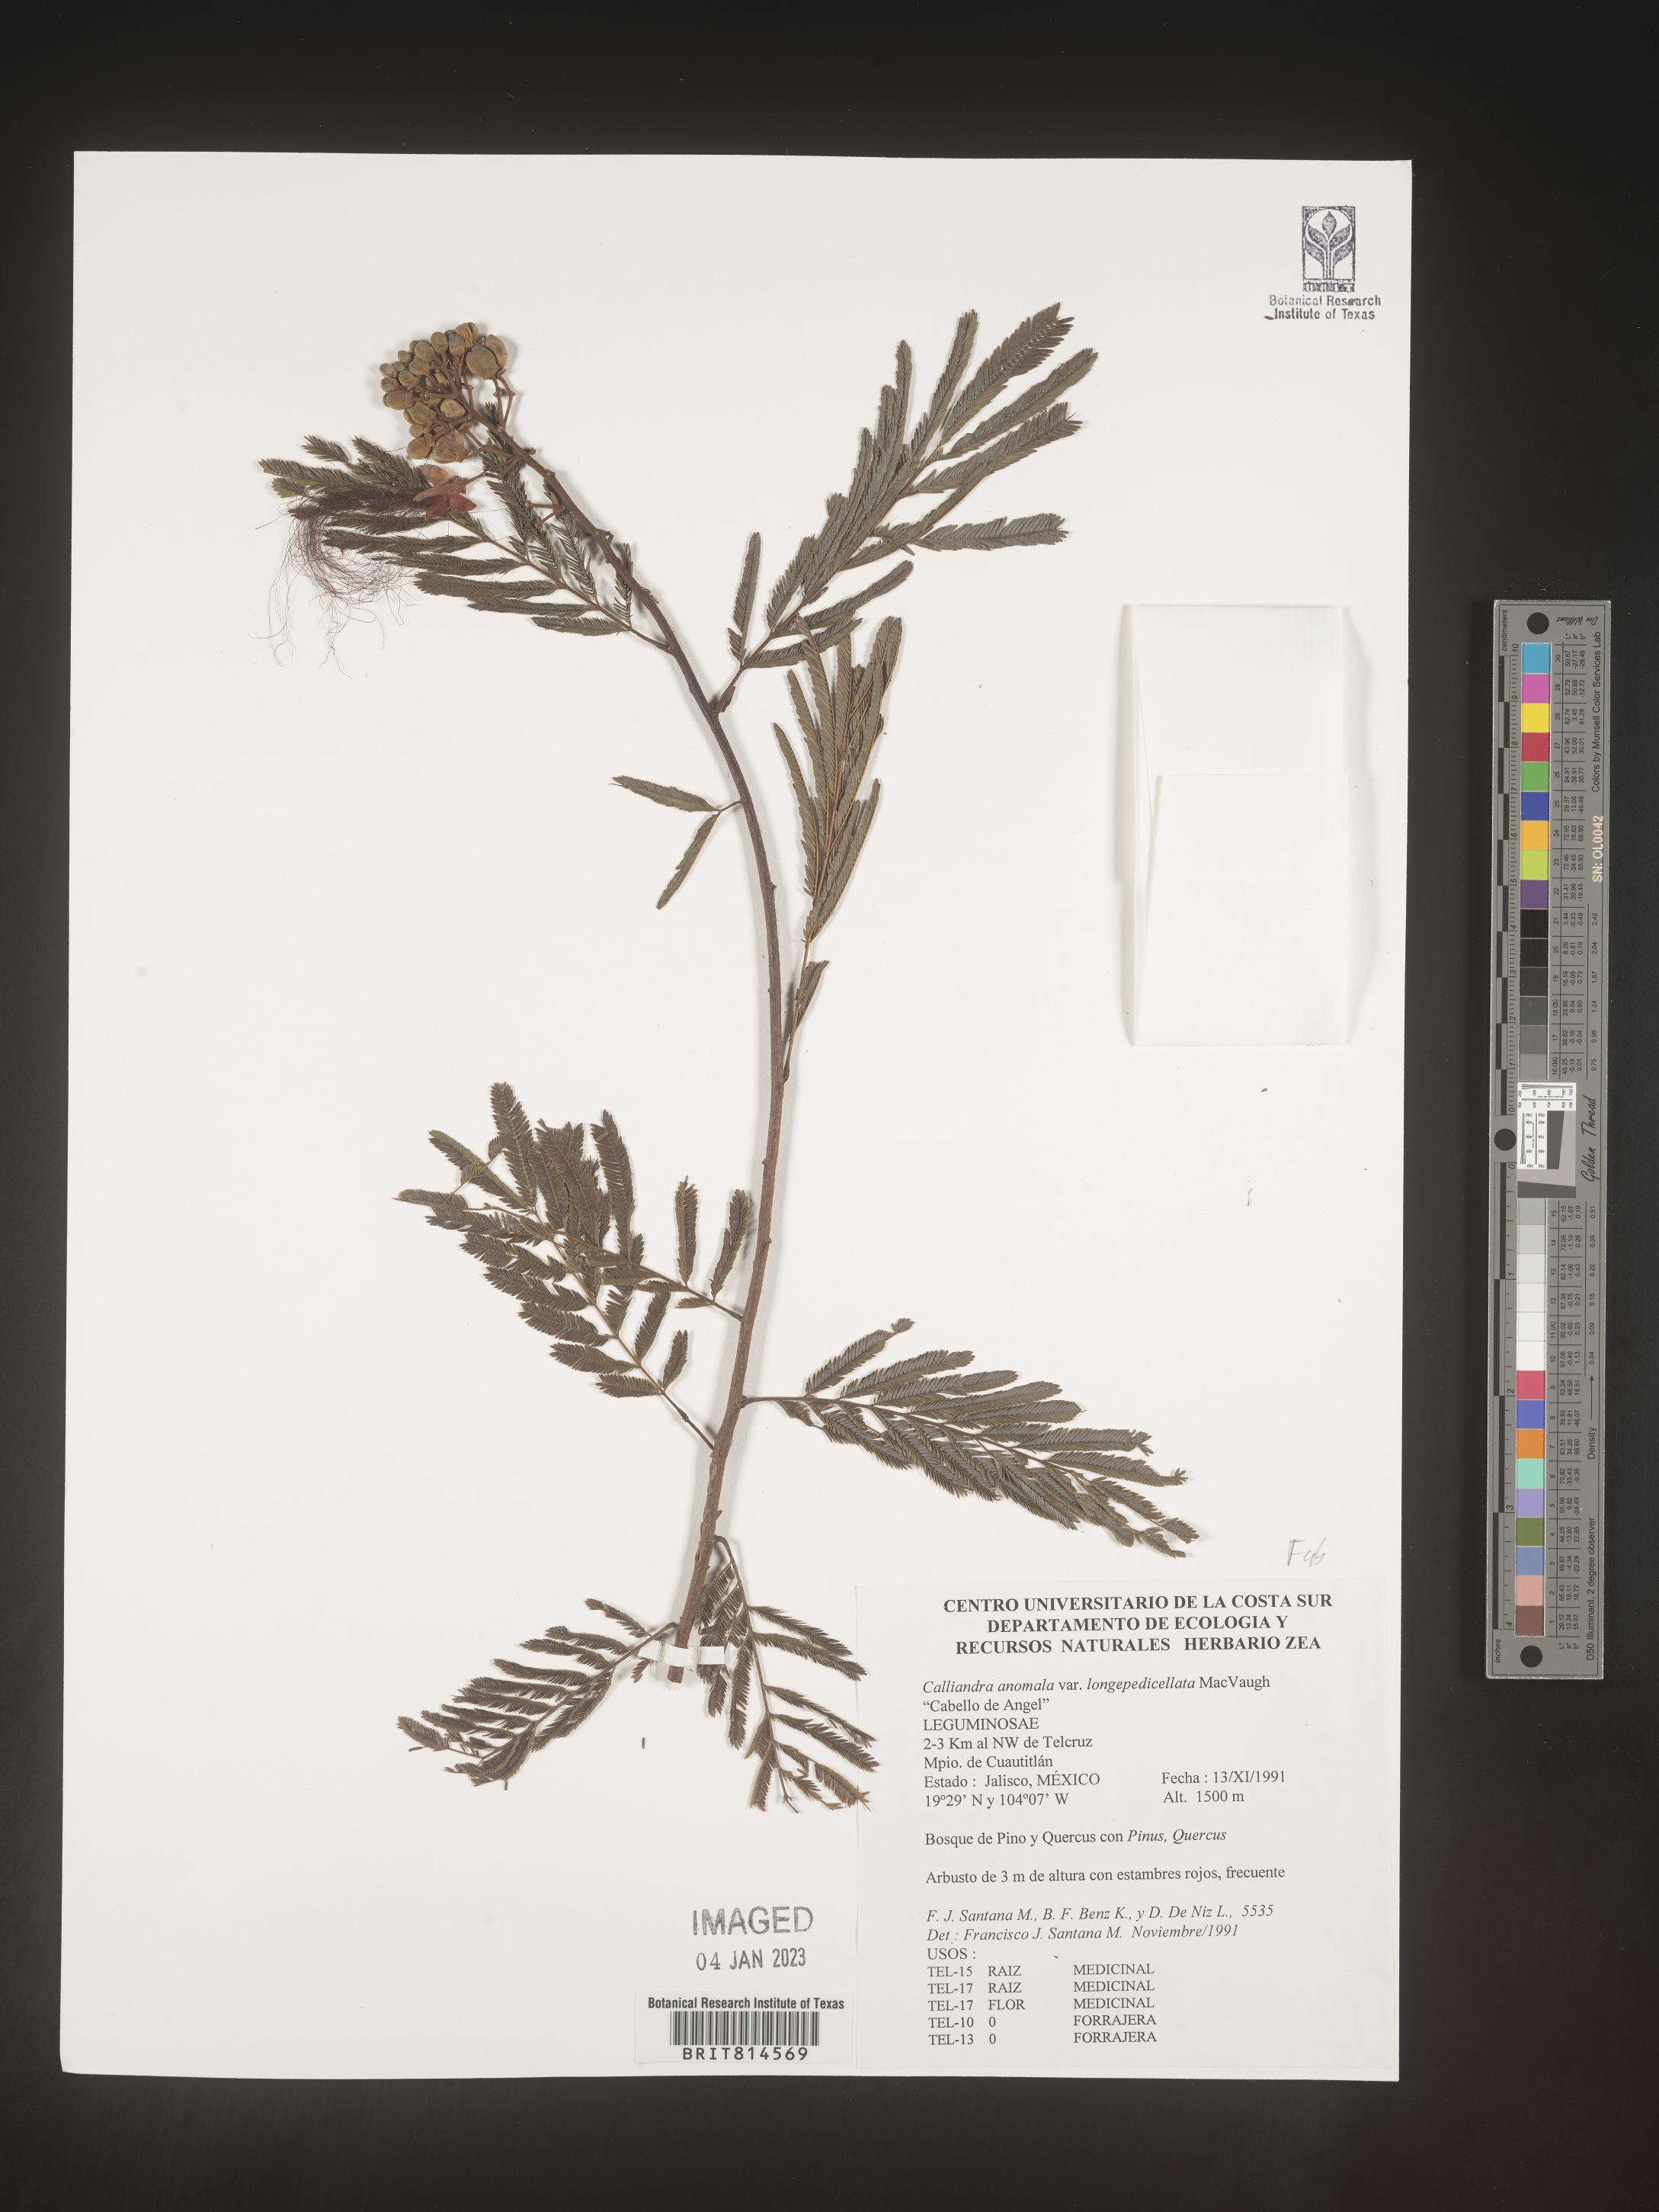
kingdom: Plantae
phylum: Tracheophyta
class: Magnoliopsida
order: Fabales
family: Fabaceae
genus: Calliandra
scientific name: Calliandra
